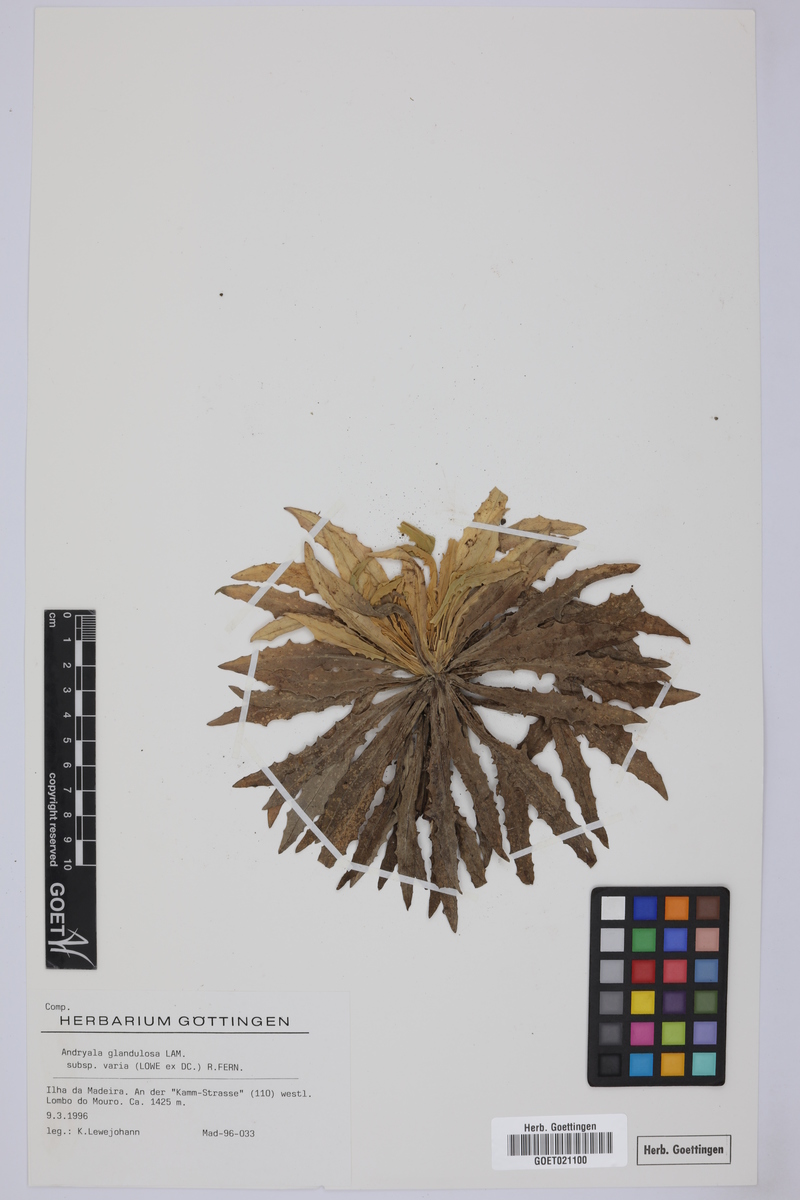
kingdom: Plantae
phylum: Tracheophyta
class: Magnoliopsida
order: Asterales
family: Asteraceae
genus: Andryala
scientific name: Andryala glandulosa
